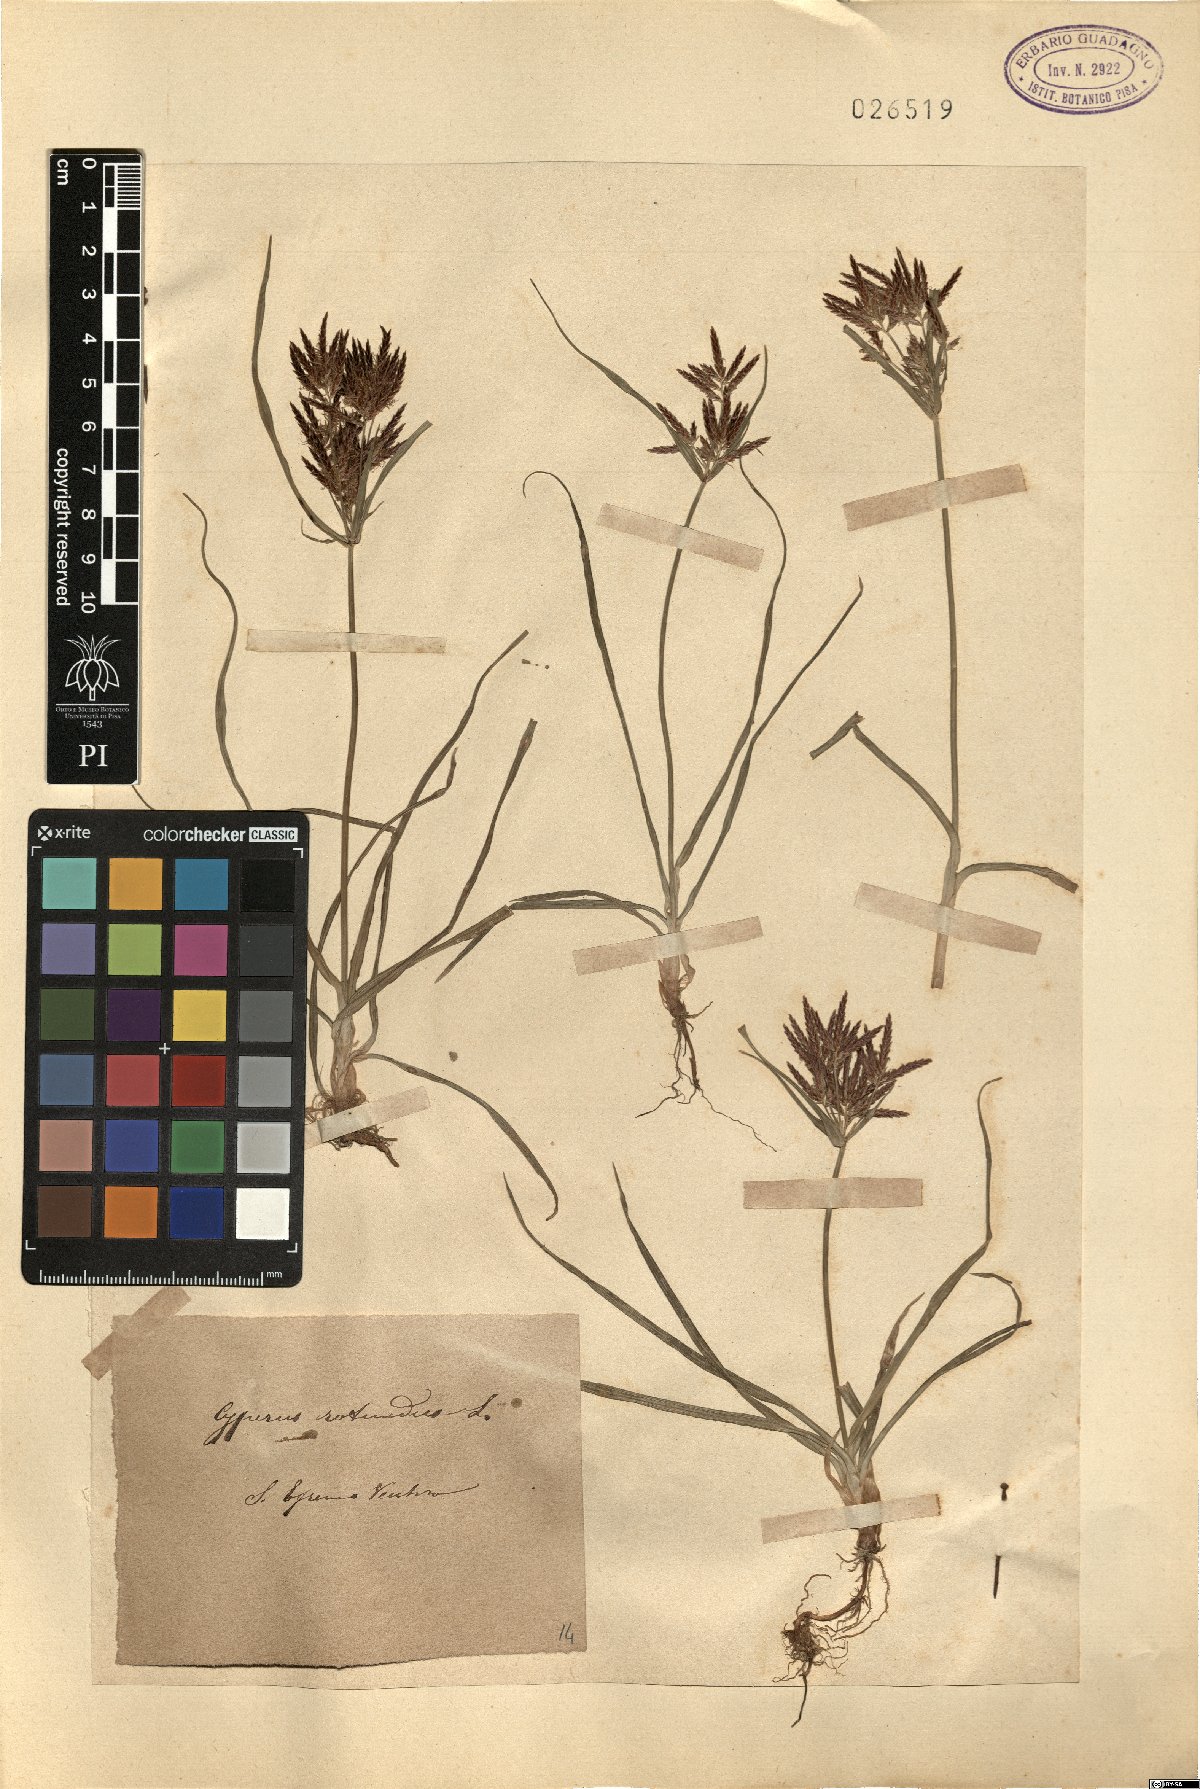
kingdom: Plantae
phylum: Tracheophyta
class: Liliopsida
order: Poales
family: Cyperaceae
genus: Cyperus
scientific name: Cyperus rotundus
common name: Nutgrass
